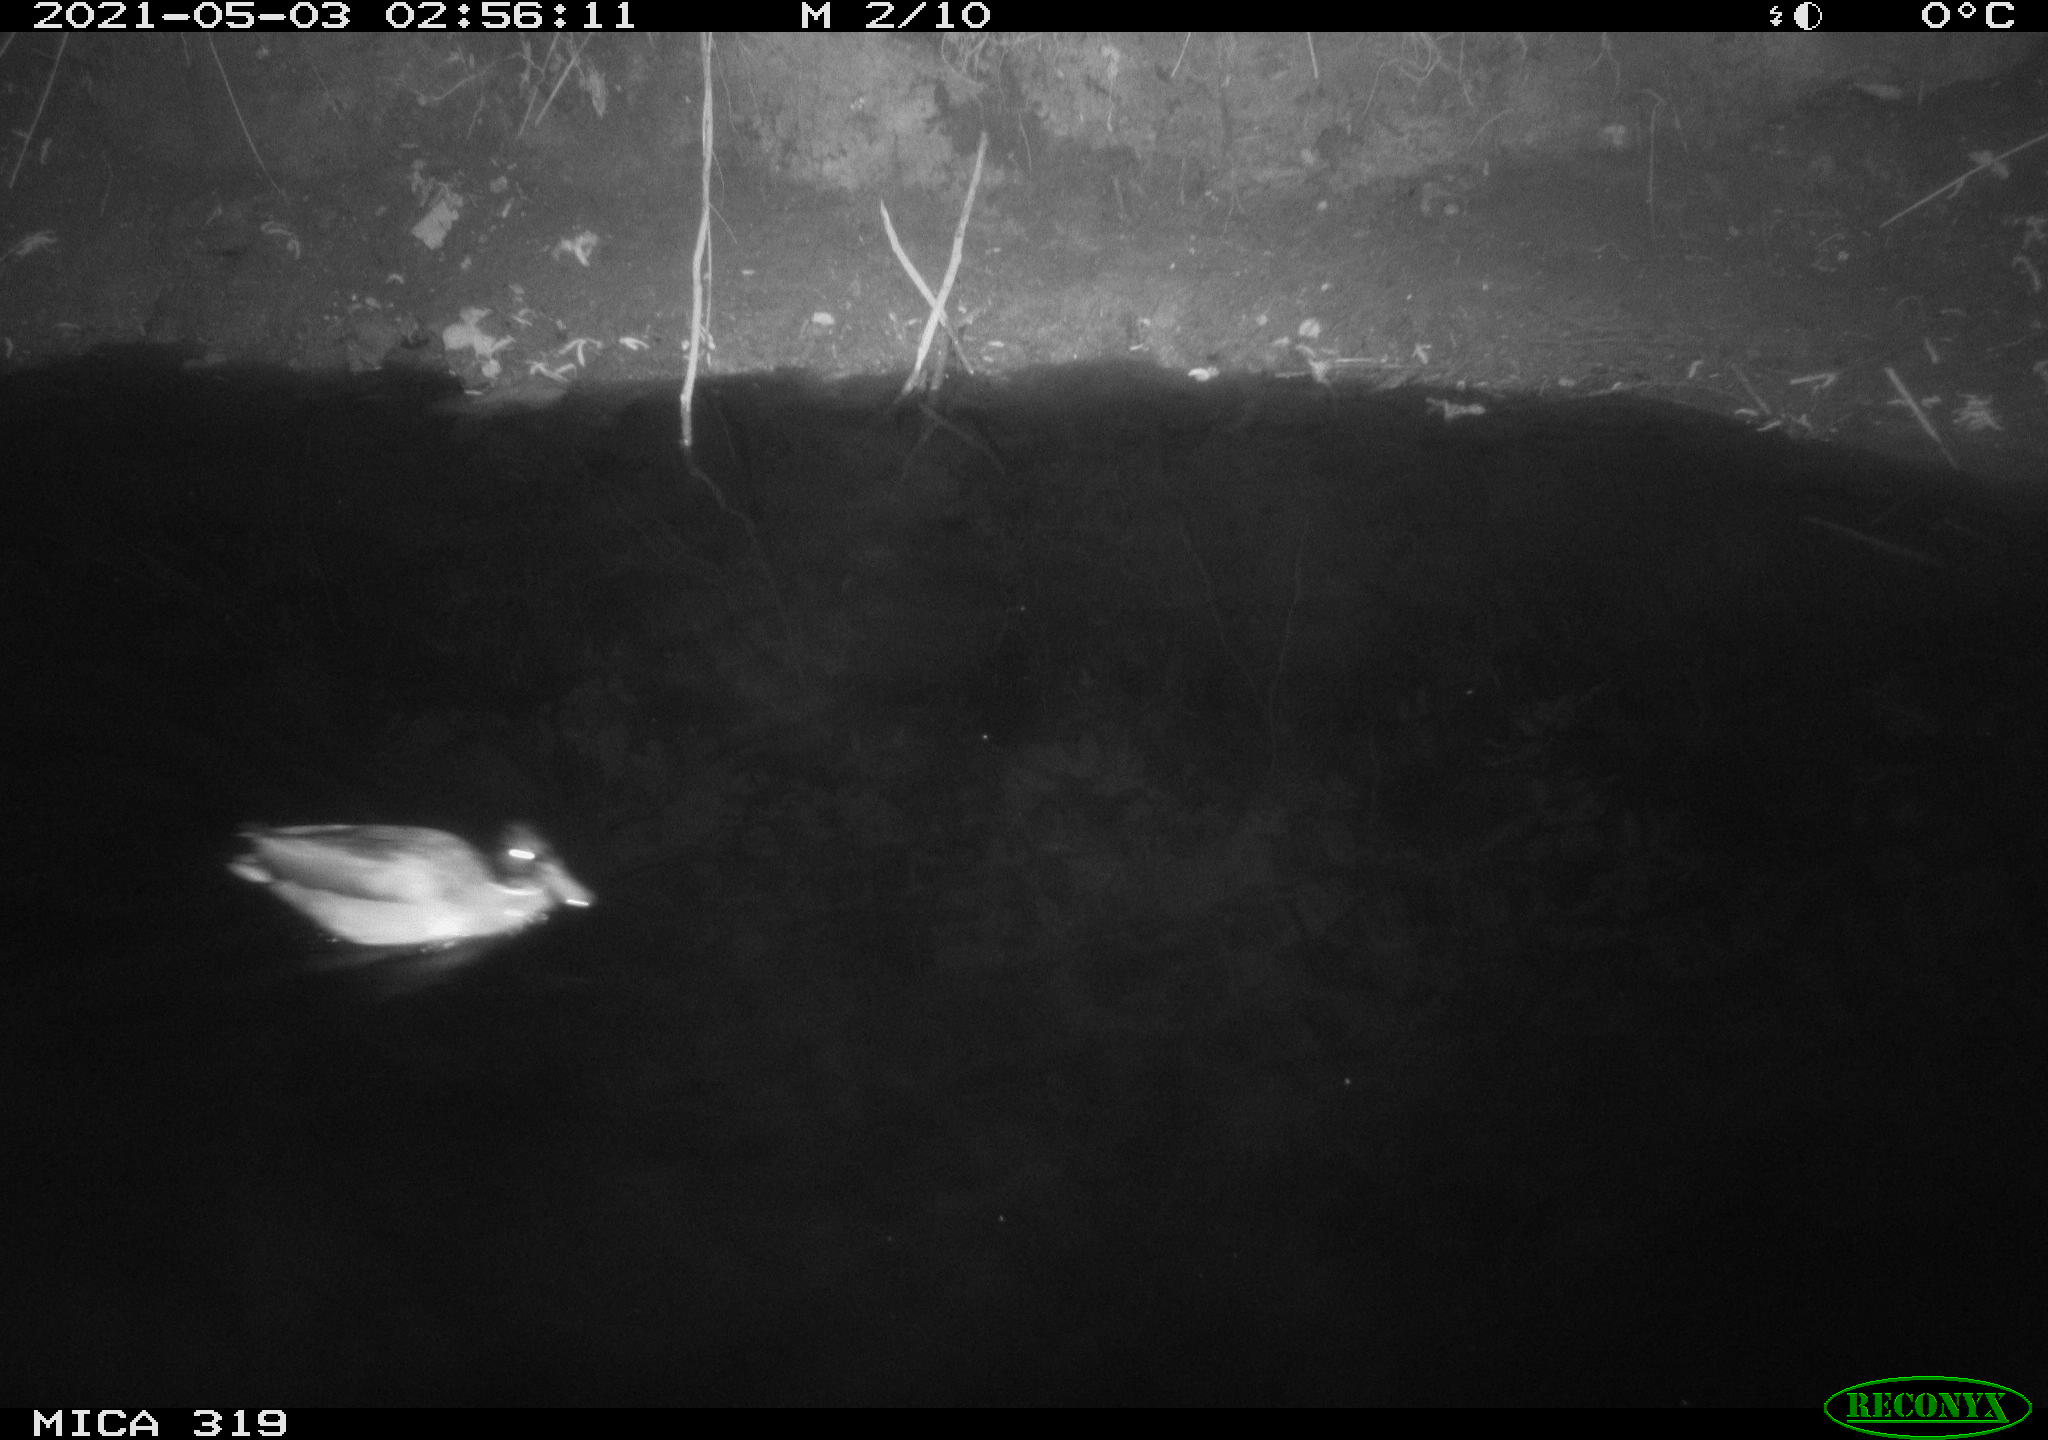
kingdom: Animalia
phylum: Chordata
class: Aves
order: Anseriformes
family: Anatidae
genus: Anas
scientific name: Anas platyrhynchos
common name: Mallard
